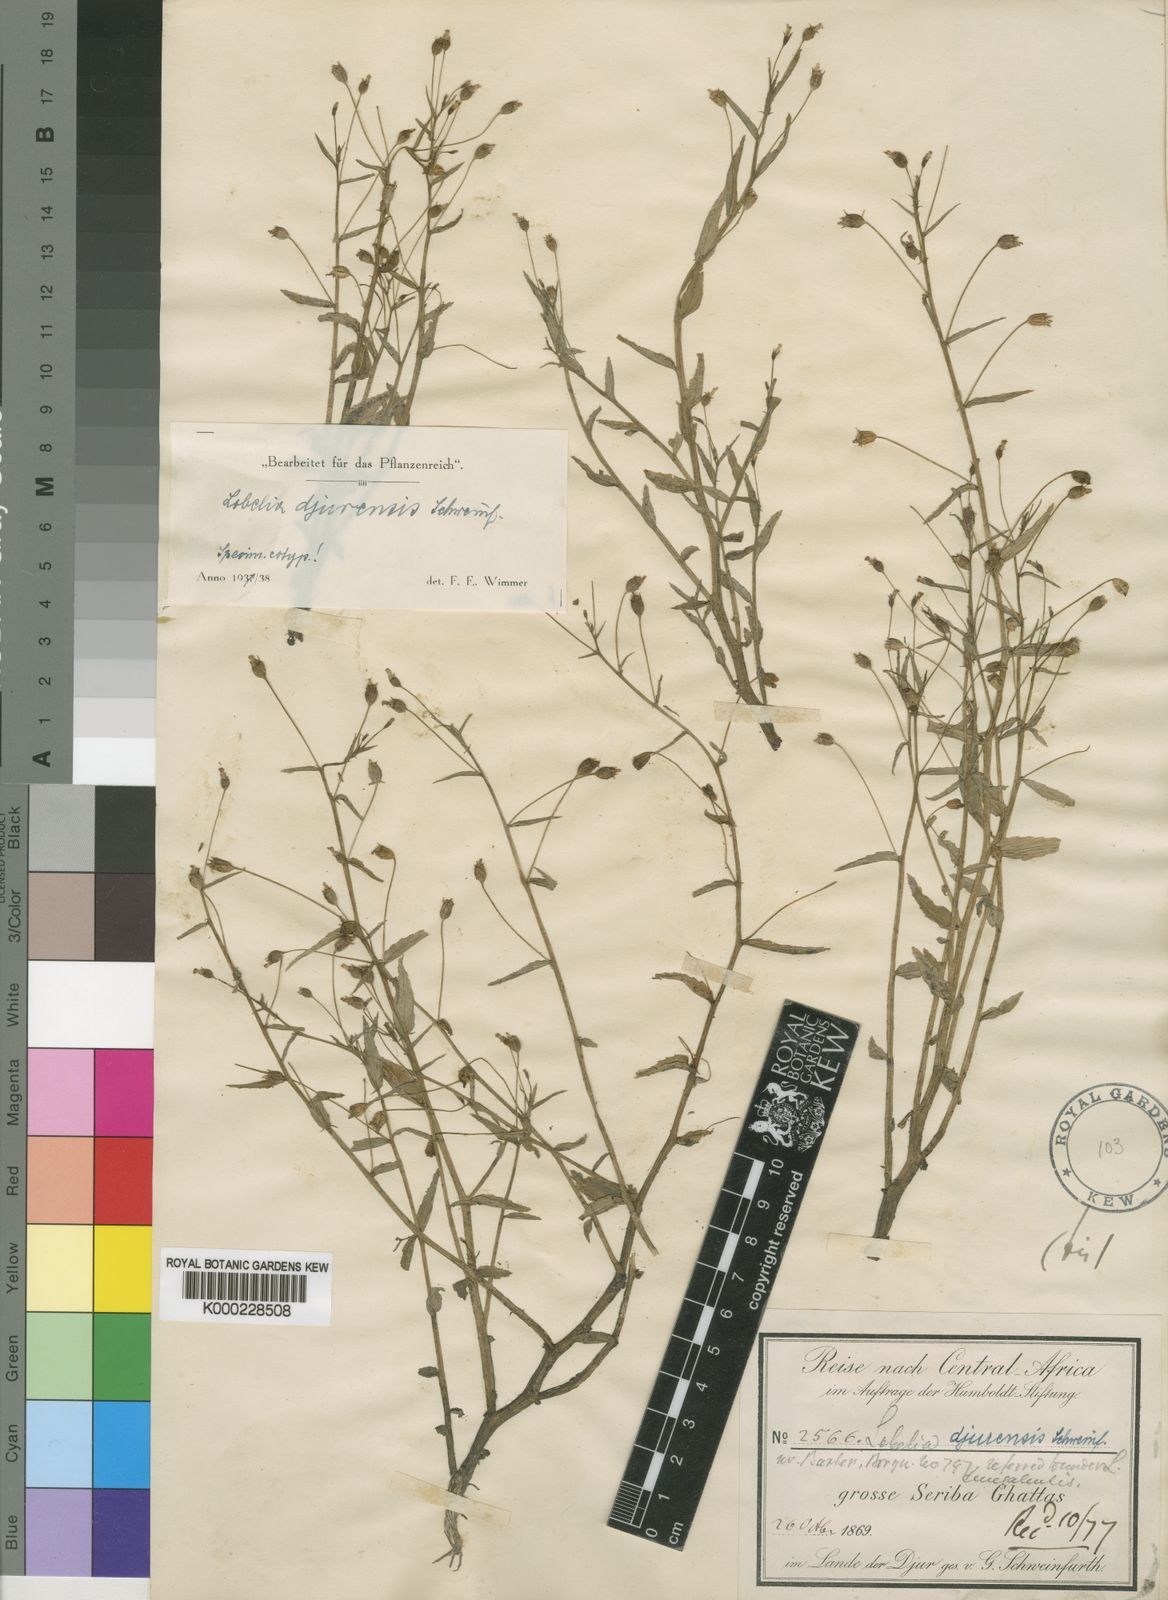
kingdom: Plantae
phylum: Tracheophyta
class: Magnoliopsida
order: Asterales
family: Campanulaceae
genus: Lobelia
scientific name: Lobelia
